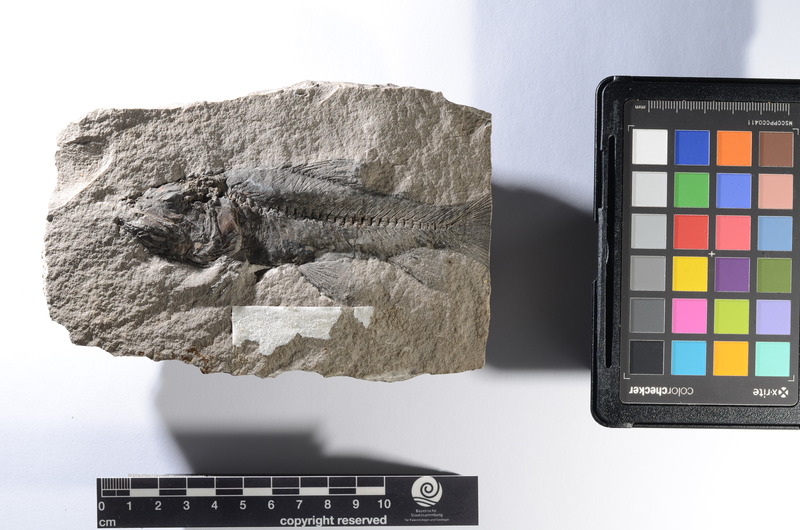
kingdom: Animalia
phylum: Chordata
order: Myctophiformes
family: Sardinoididae
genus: Sardinioides
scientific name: Sardinioides Osmeroides monasterii
